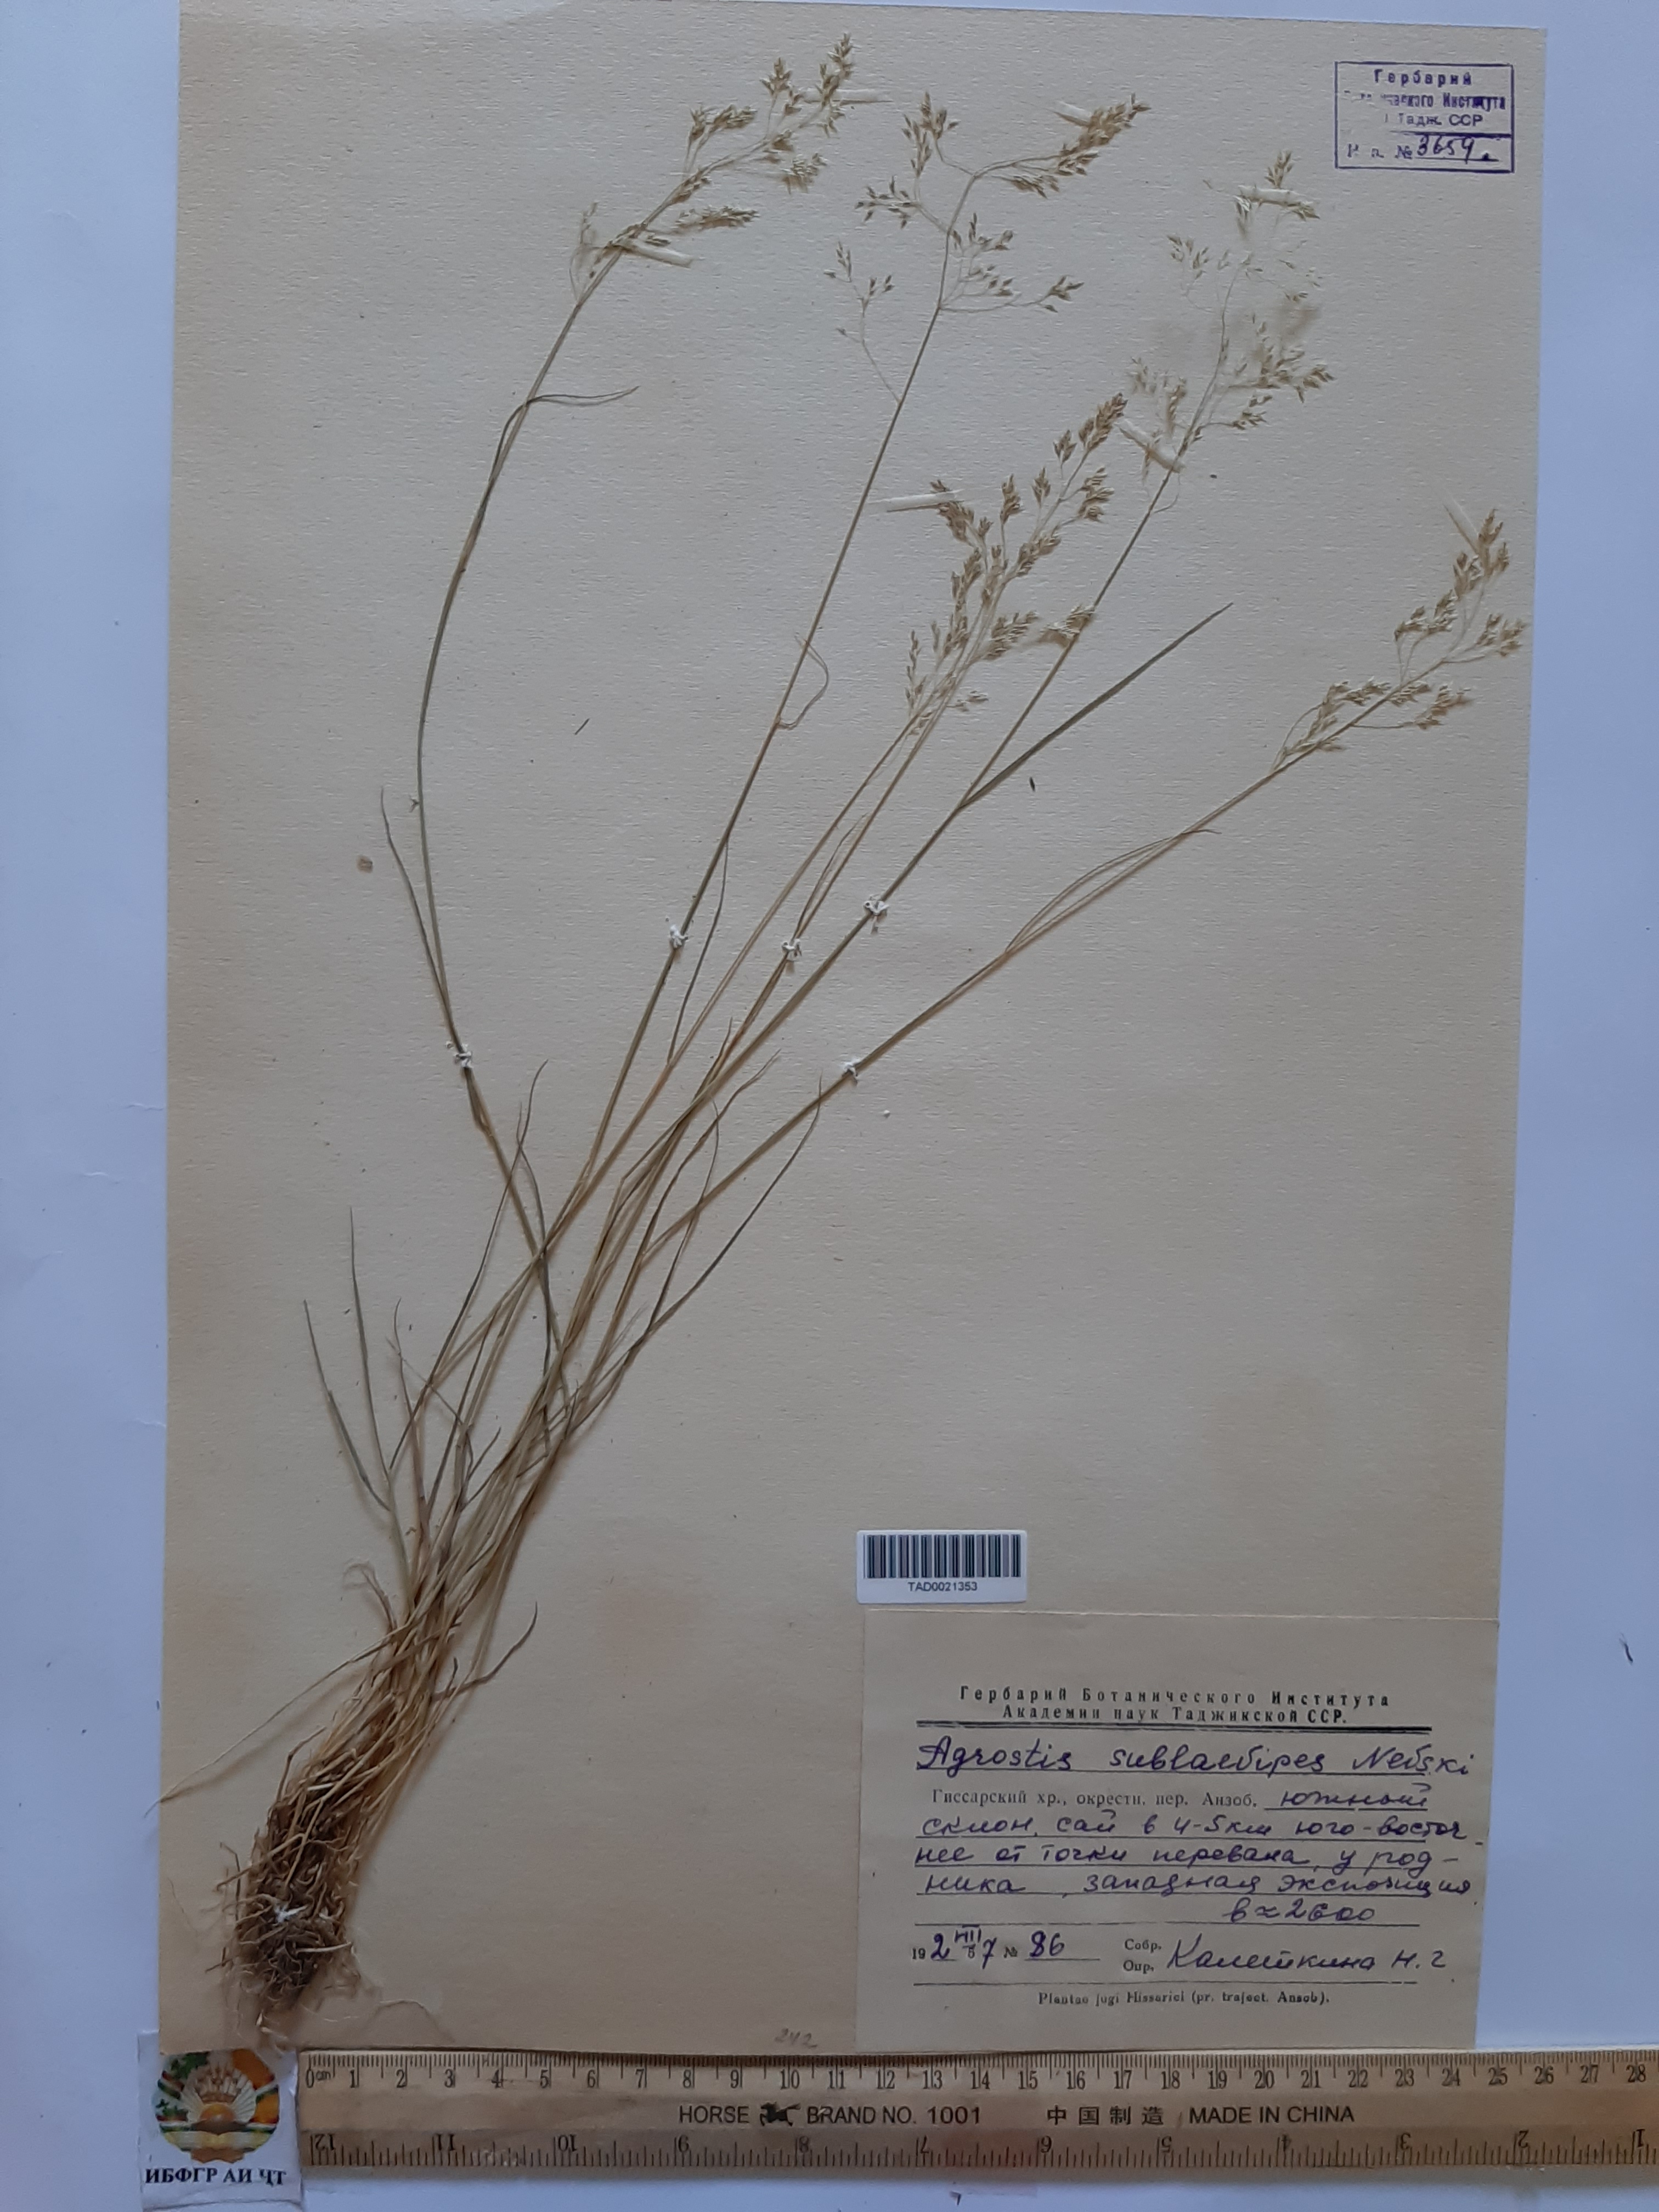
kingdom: Plantae
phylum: Tracheophyta
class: Liliopsida
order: Poales
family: Poaceae
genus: Agrostis
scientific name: Agrostis vinealis
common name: Brown bent
